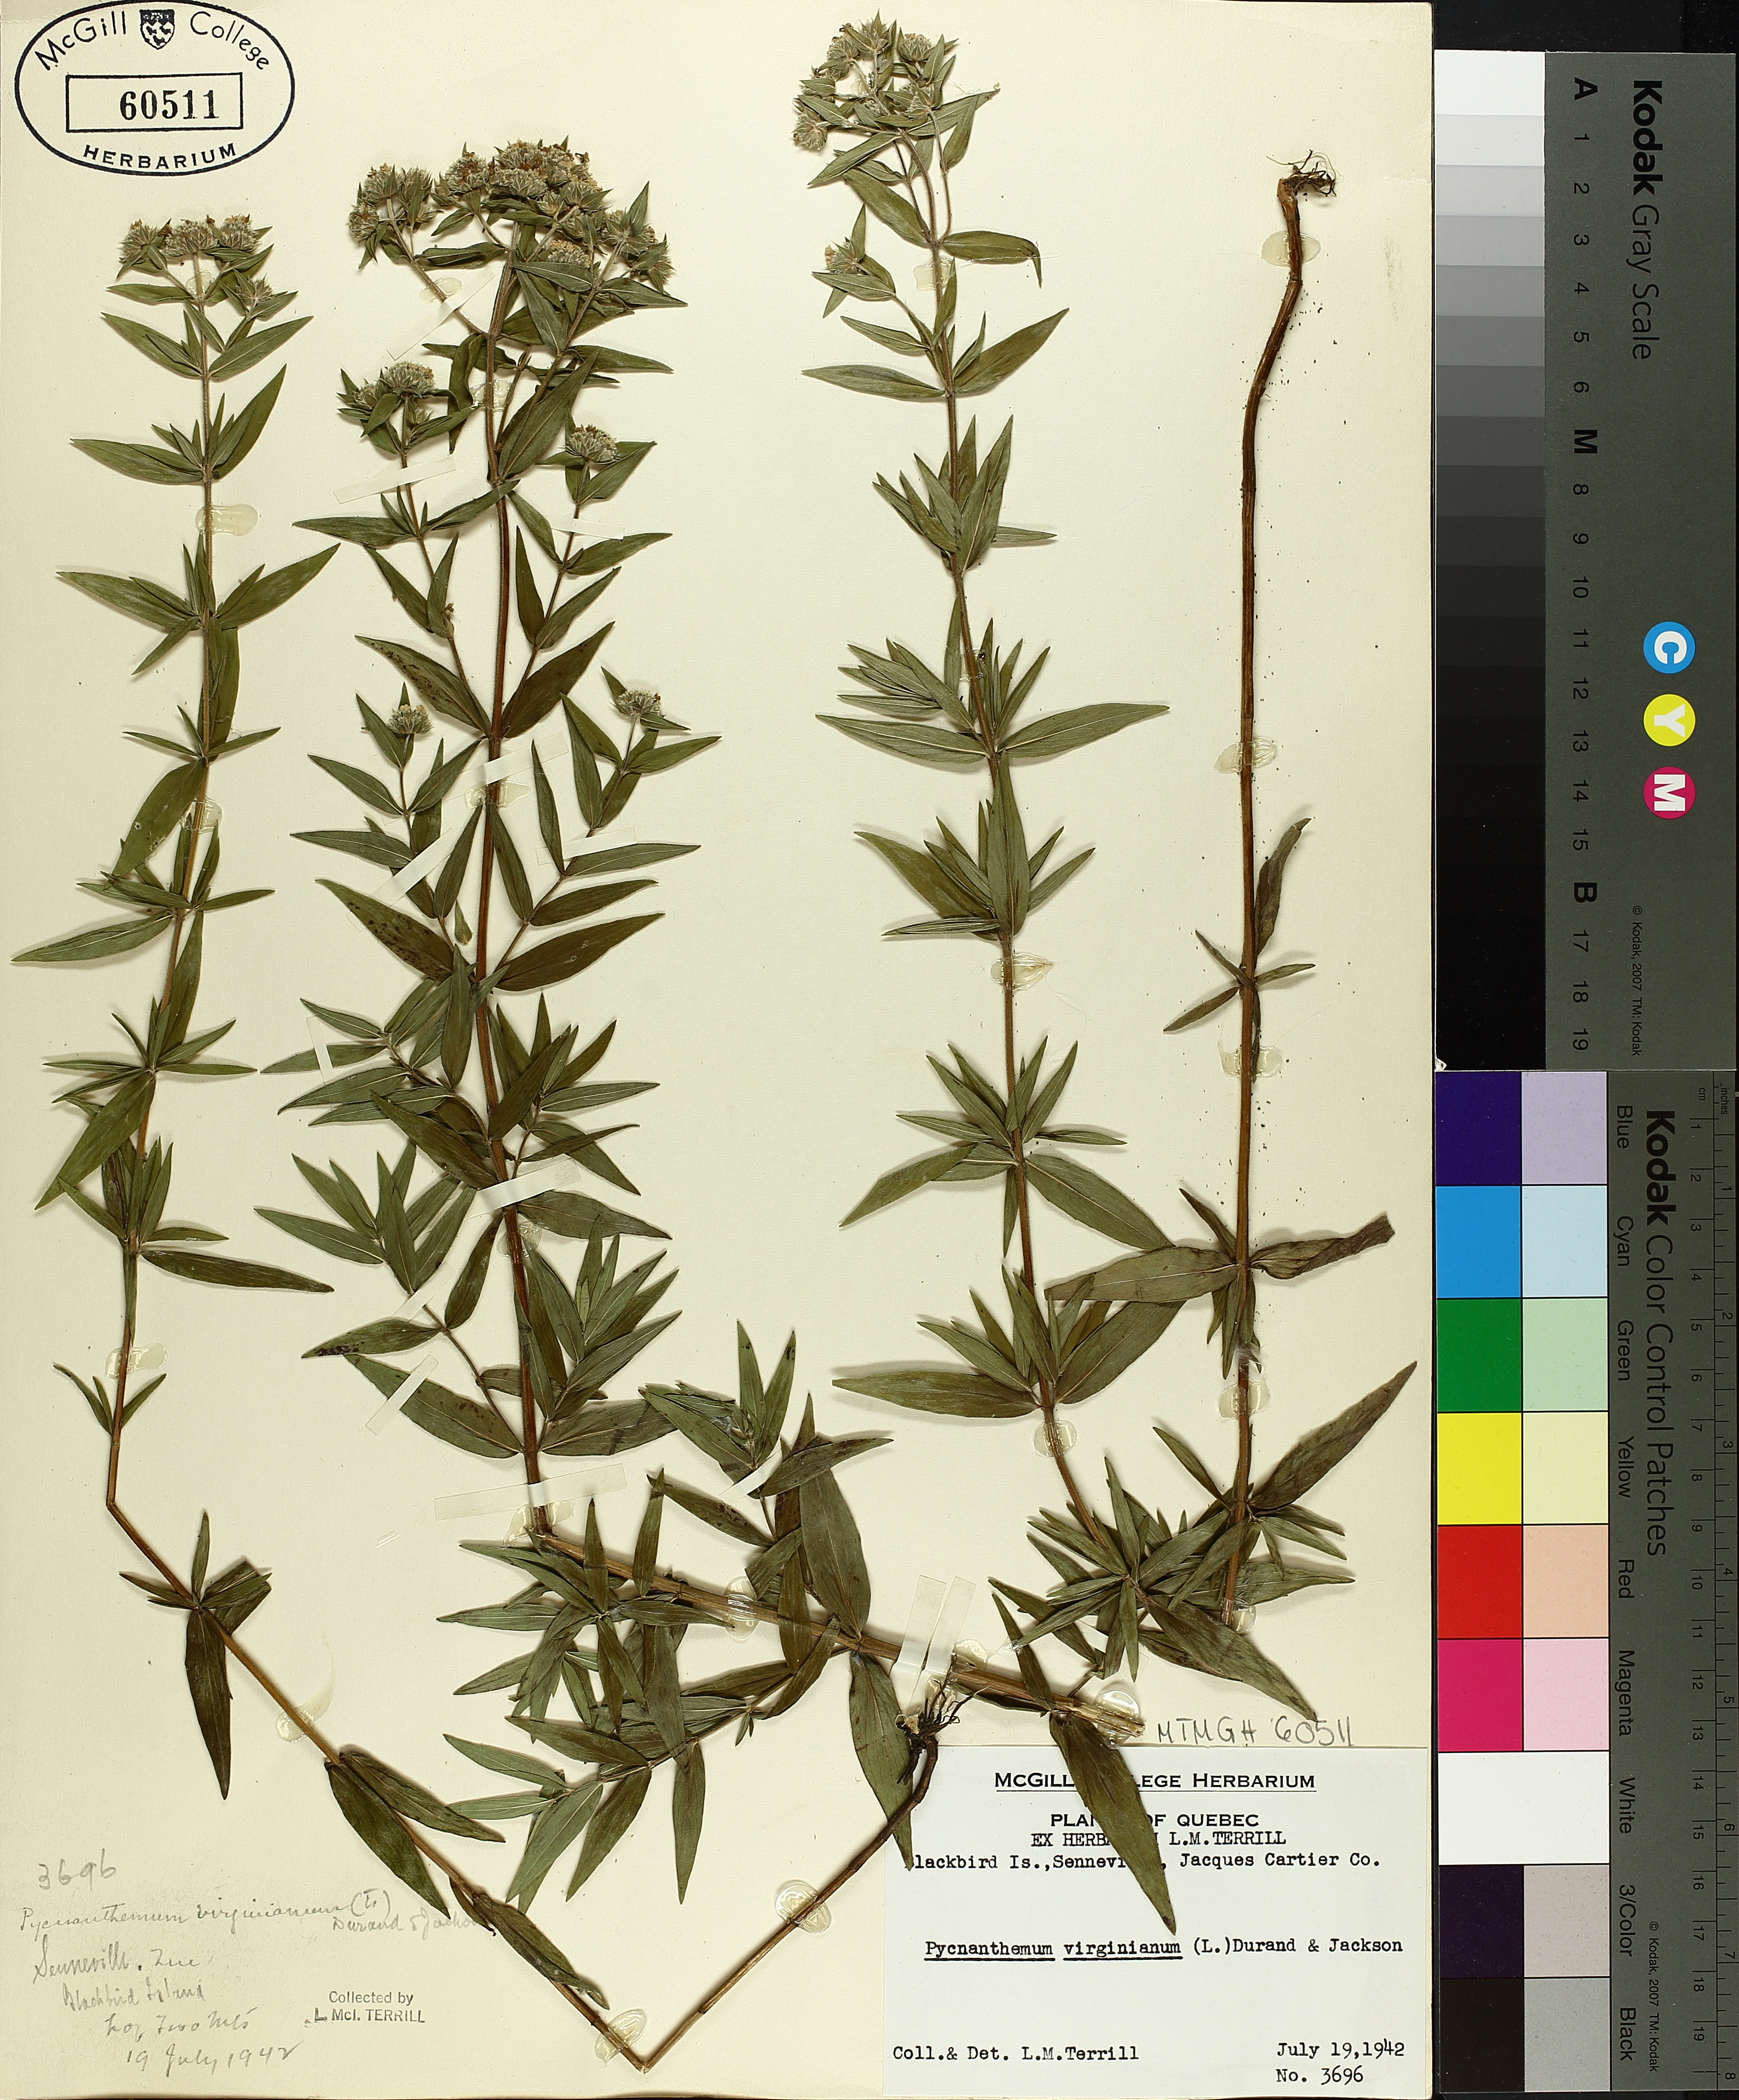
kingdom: Plantae
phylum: Tracheophyta
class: Magnoliopsida
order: Lamiales
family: Lamiaceae
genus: Pycnanthemum
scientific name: Pycnanthemum virginianum
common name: Virginia mountain-mint
